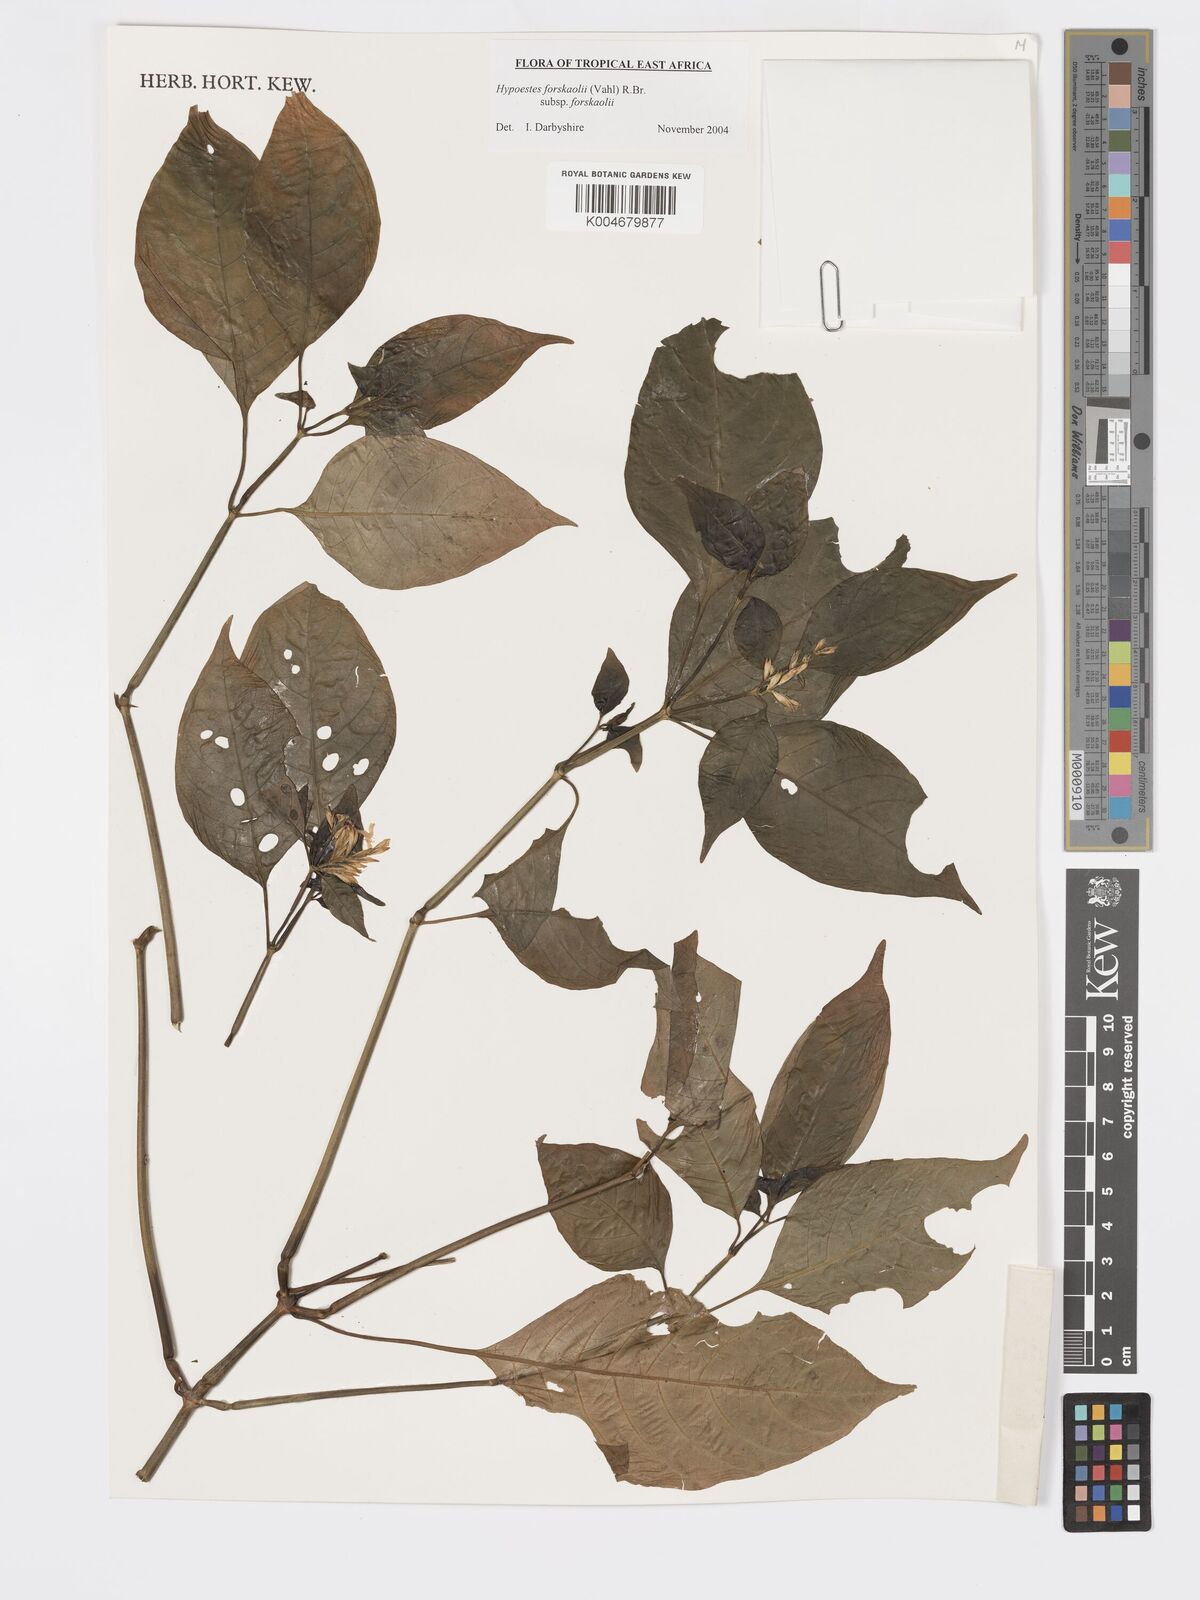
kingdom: Plantae
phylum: Tracheophyta
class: Magnoliopsida
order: Lamiales
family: Acanthaceae
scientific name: Acanthaceae
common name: Acanthaceae
